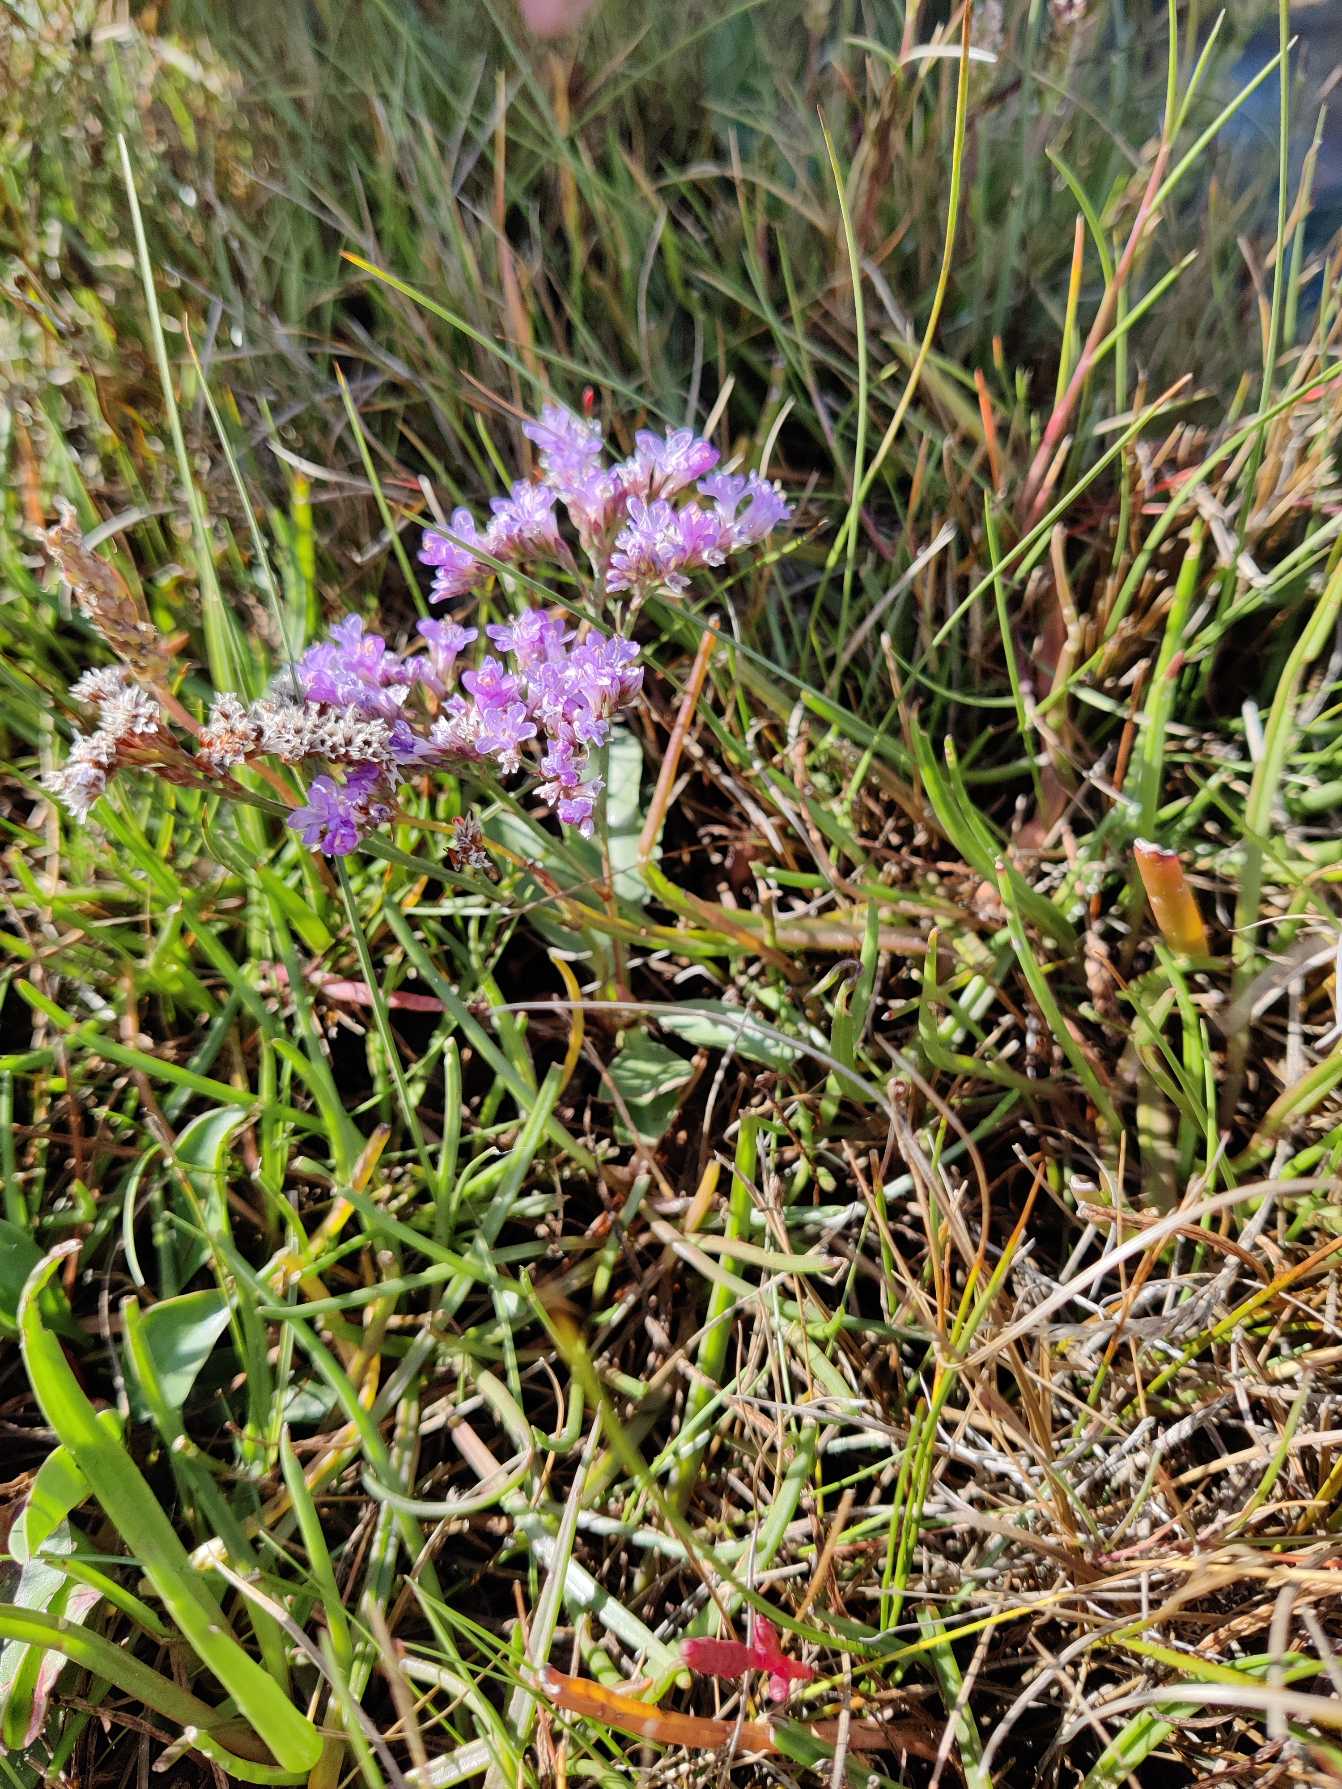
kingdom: Plantae
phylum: Tracheophyta
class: Magnoliopsida
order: Caryophyllales
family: Plumbaginaceae
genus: Limonium
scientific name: Limonium vulgare
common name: Tætblomstret hindebæger
